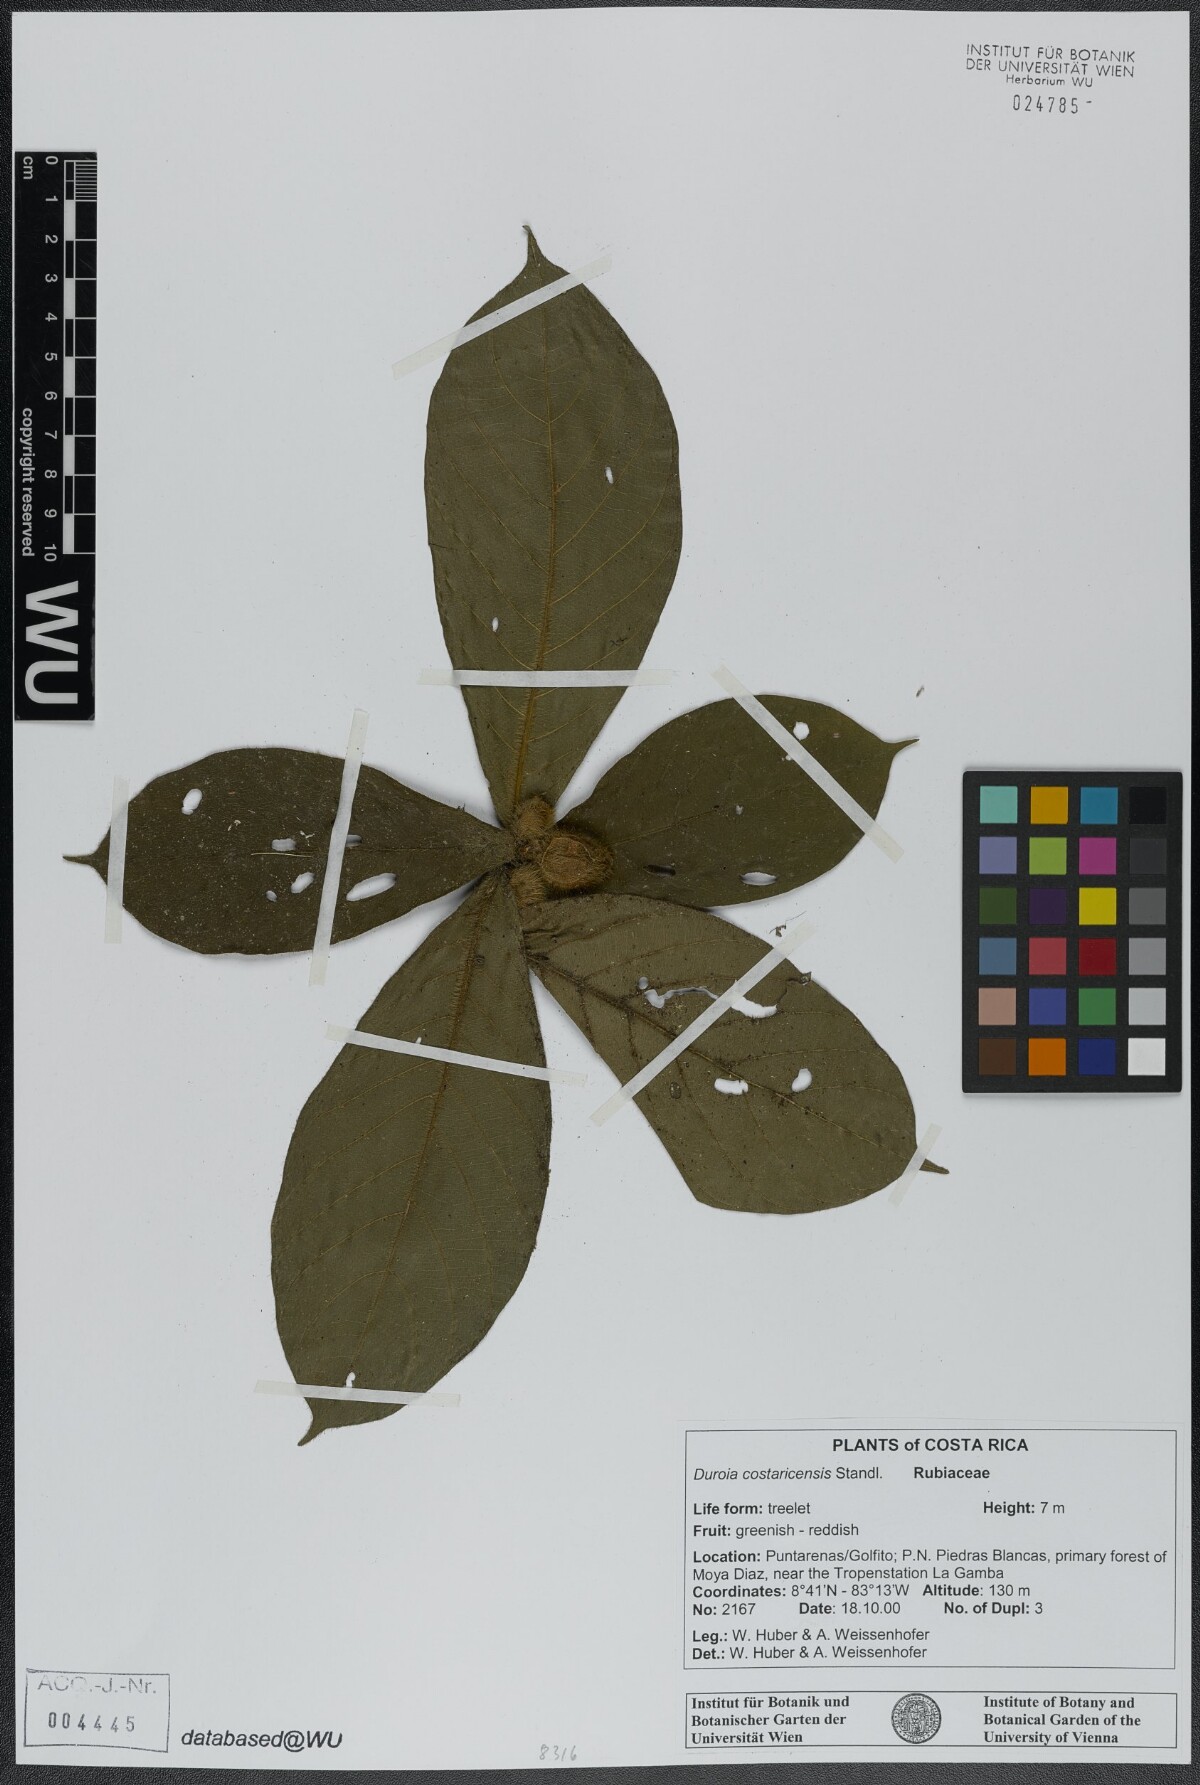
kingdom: Plantae
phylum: Tracheophyta
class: Magnoliopsida
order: Gentianales
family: Rubiaceae
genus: Duroia
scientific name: Duroia costaricensis
